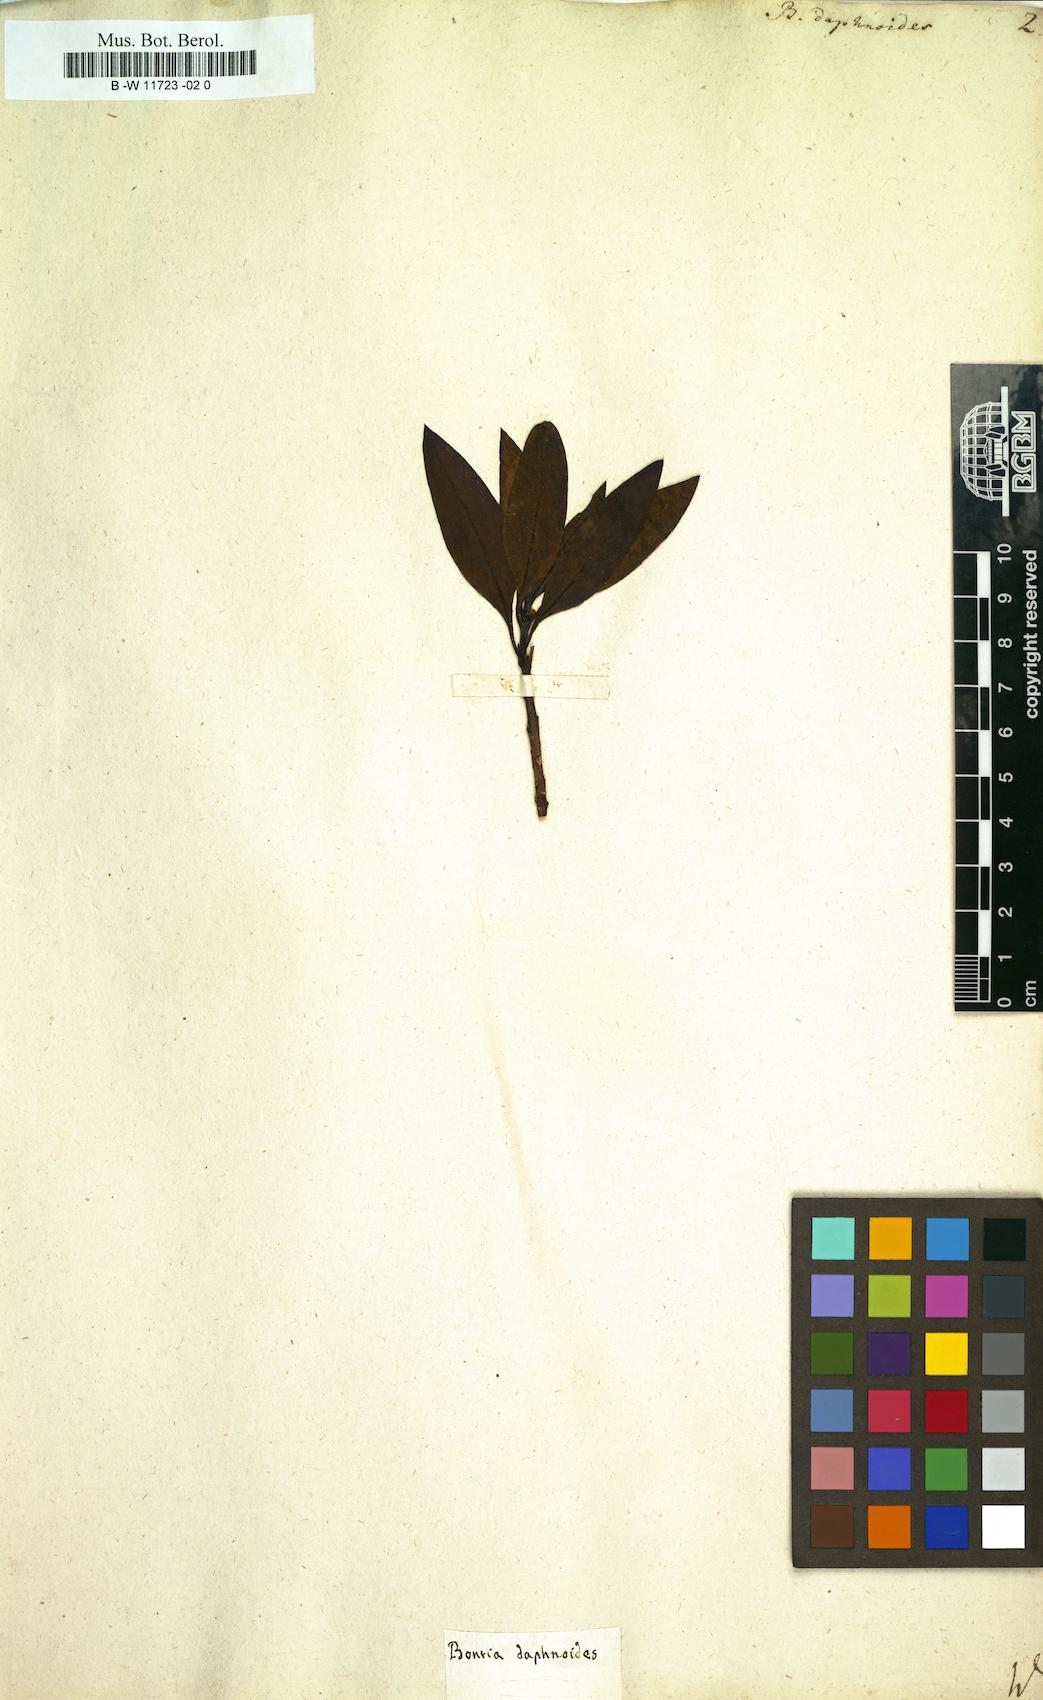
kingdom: Plantae
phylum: Tracheophyta
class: Magnoliopsida
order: Lamiales
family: Scrophulariaceae
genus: Bontia
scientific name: Bontia daphnoides
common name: Wild olive
